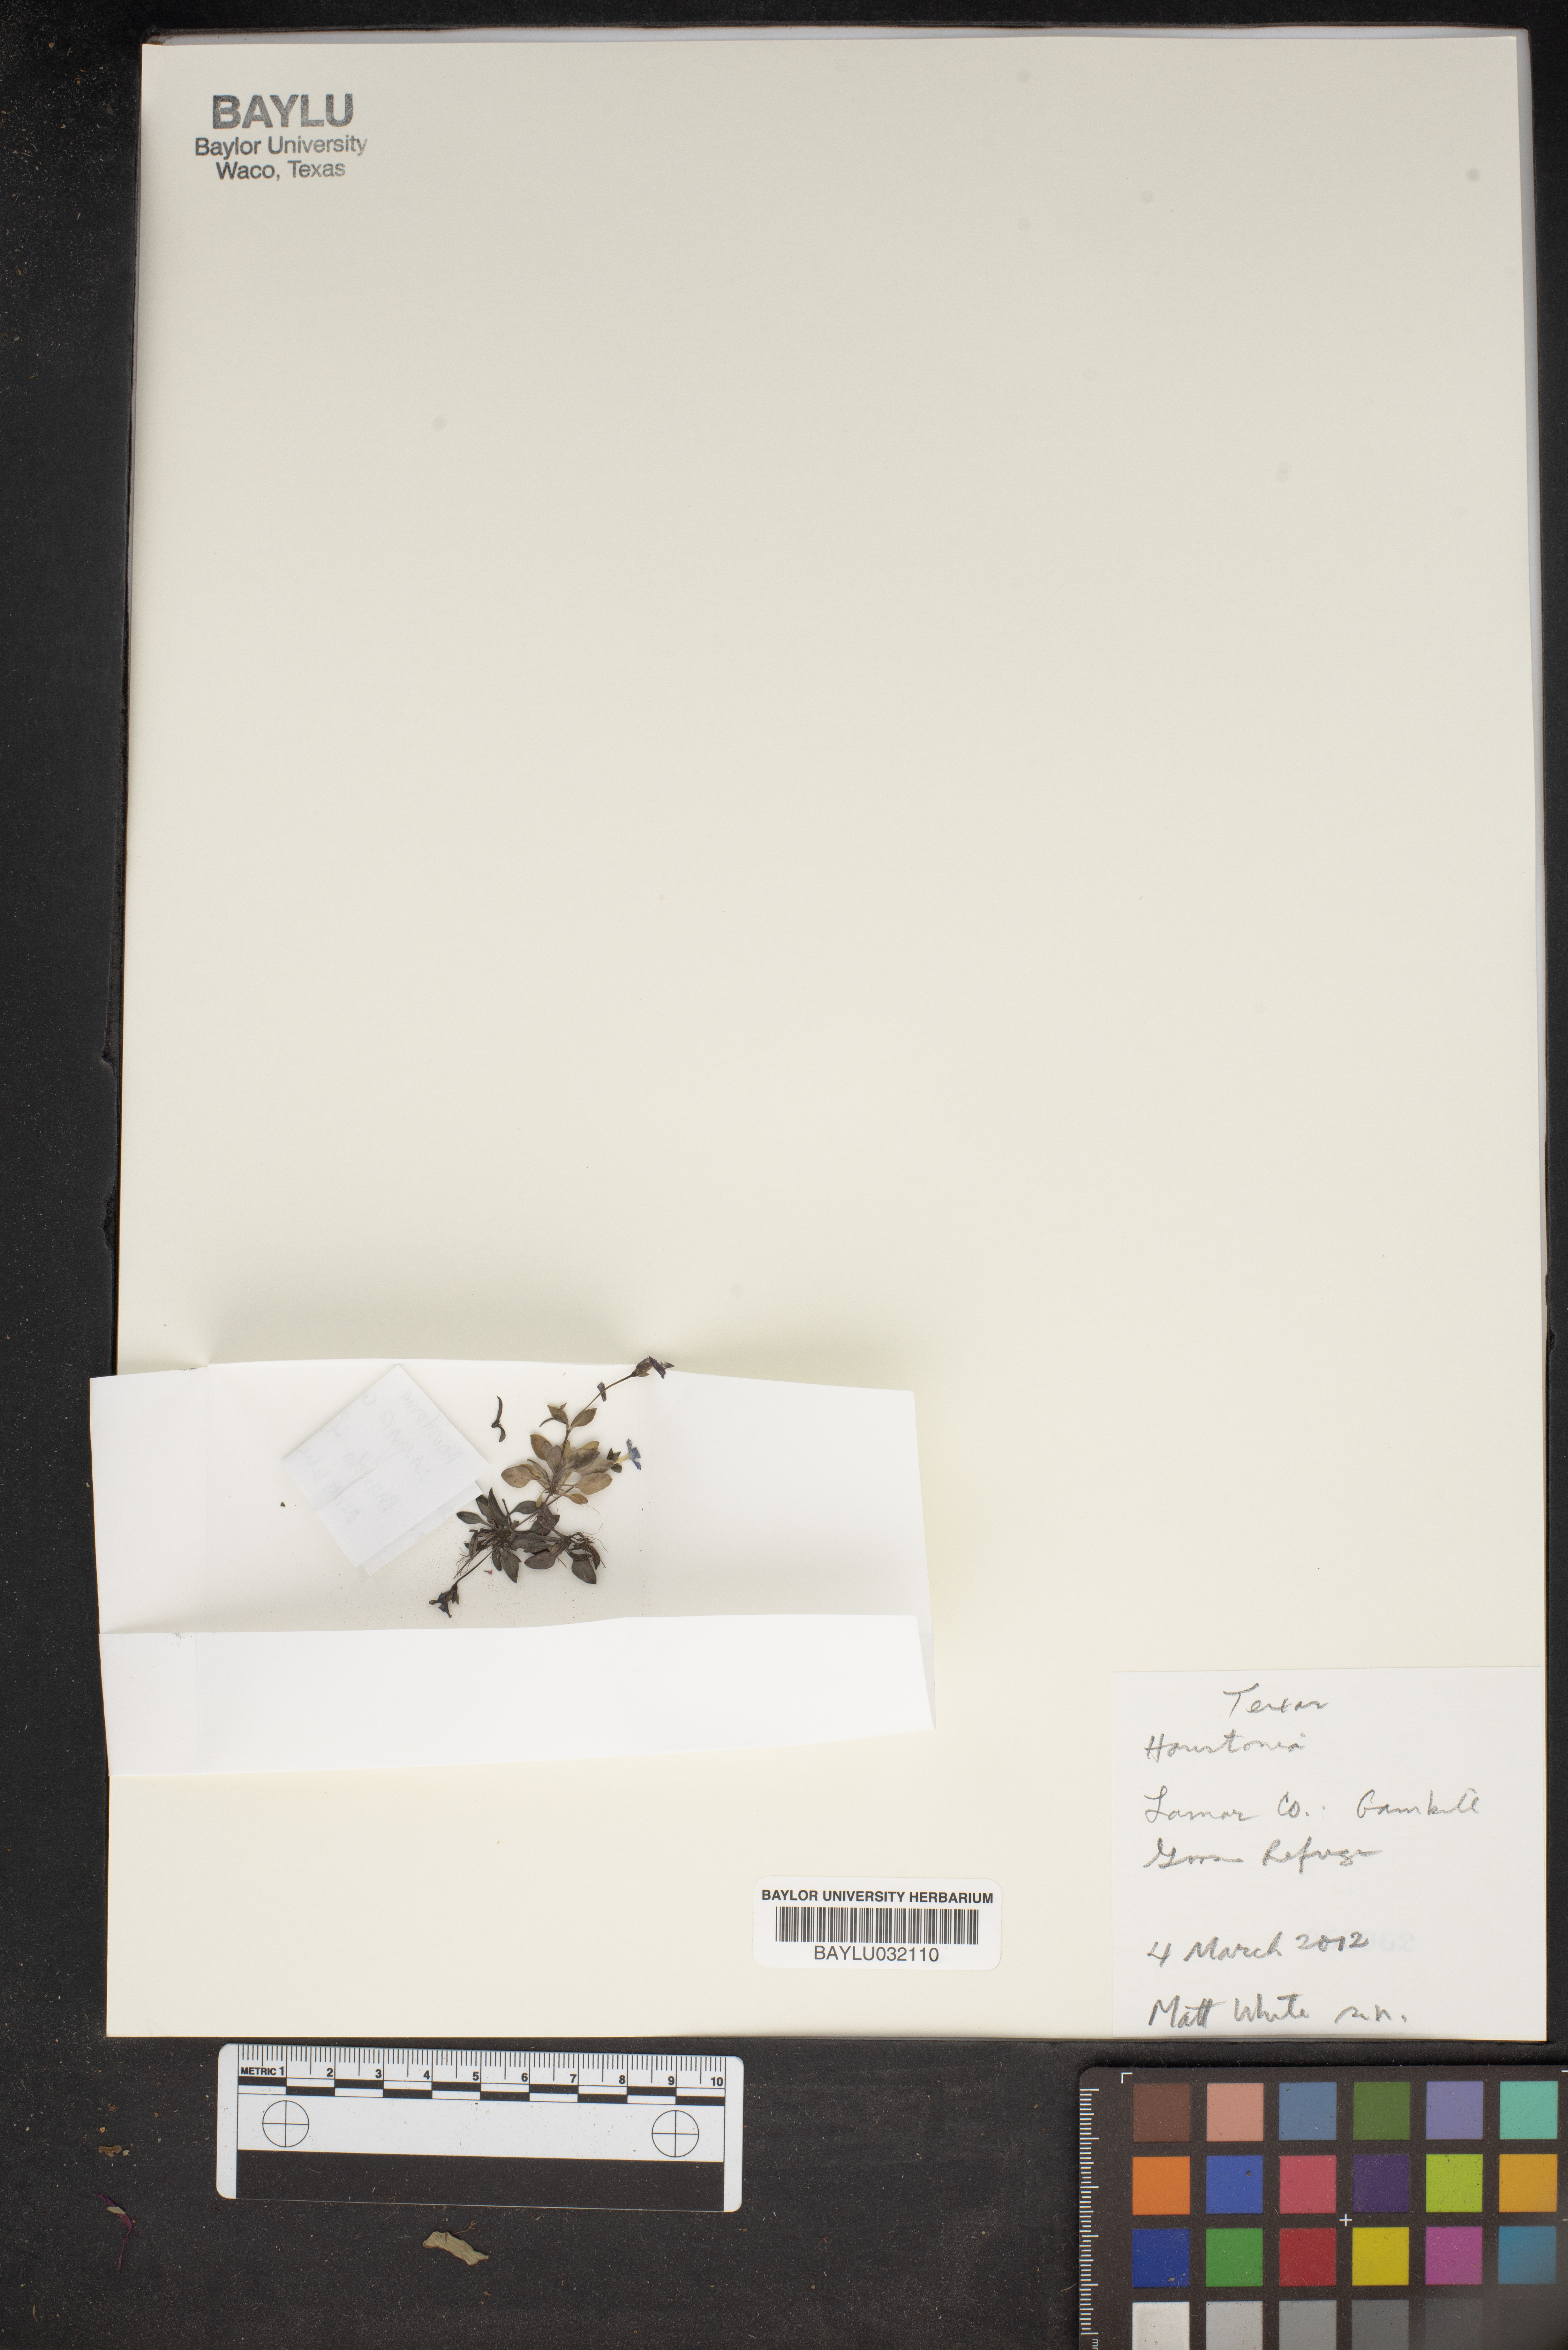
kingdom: Plantae
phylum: Tracheophyta
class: Magnoliopsida
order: Gentianales
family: Rubiaceae
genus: Houstonia
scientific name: Houstonia
